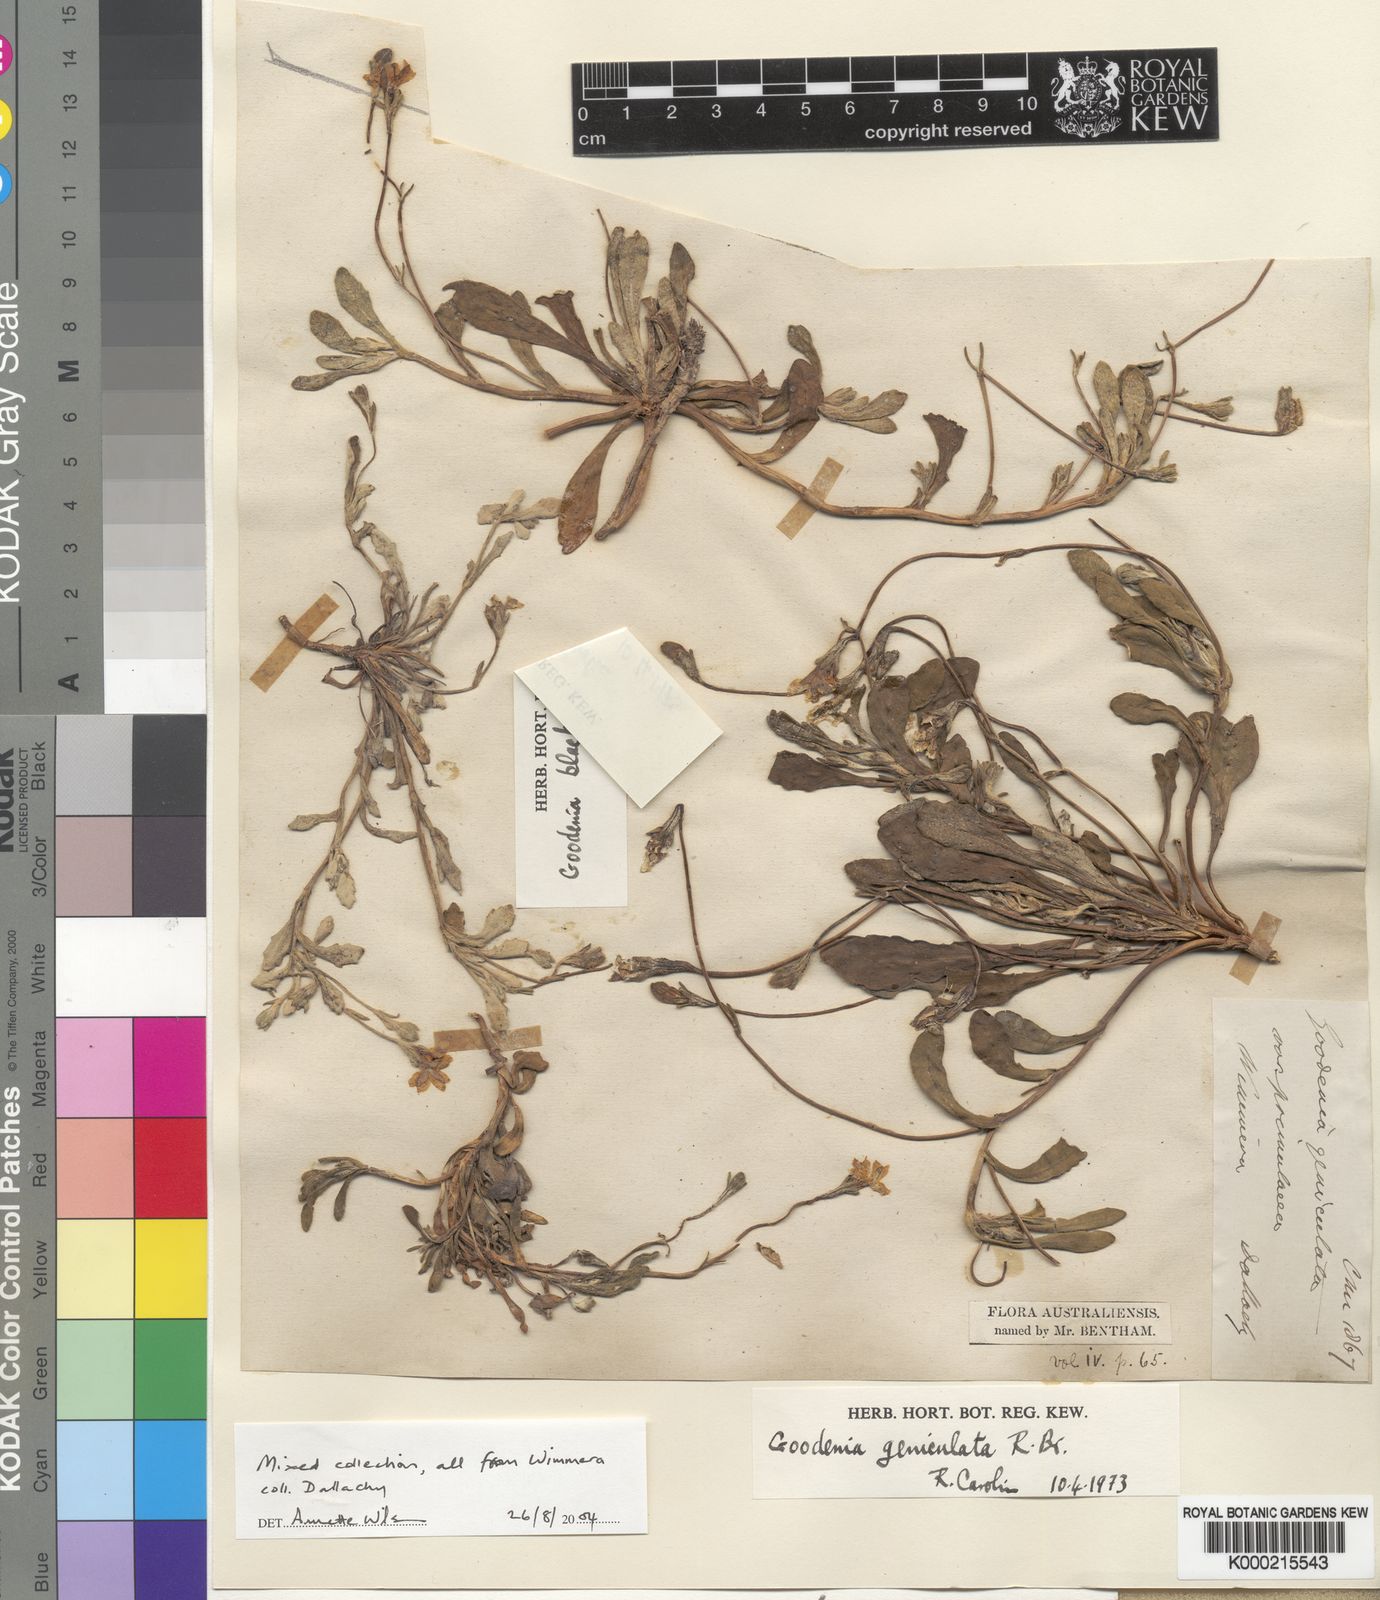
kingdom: Plantae
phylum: Tracheophyta
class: Magnoliopsida
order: Asterales
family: Goodeniaceae
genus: Goodenia
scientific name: Goodenia blackiana
